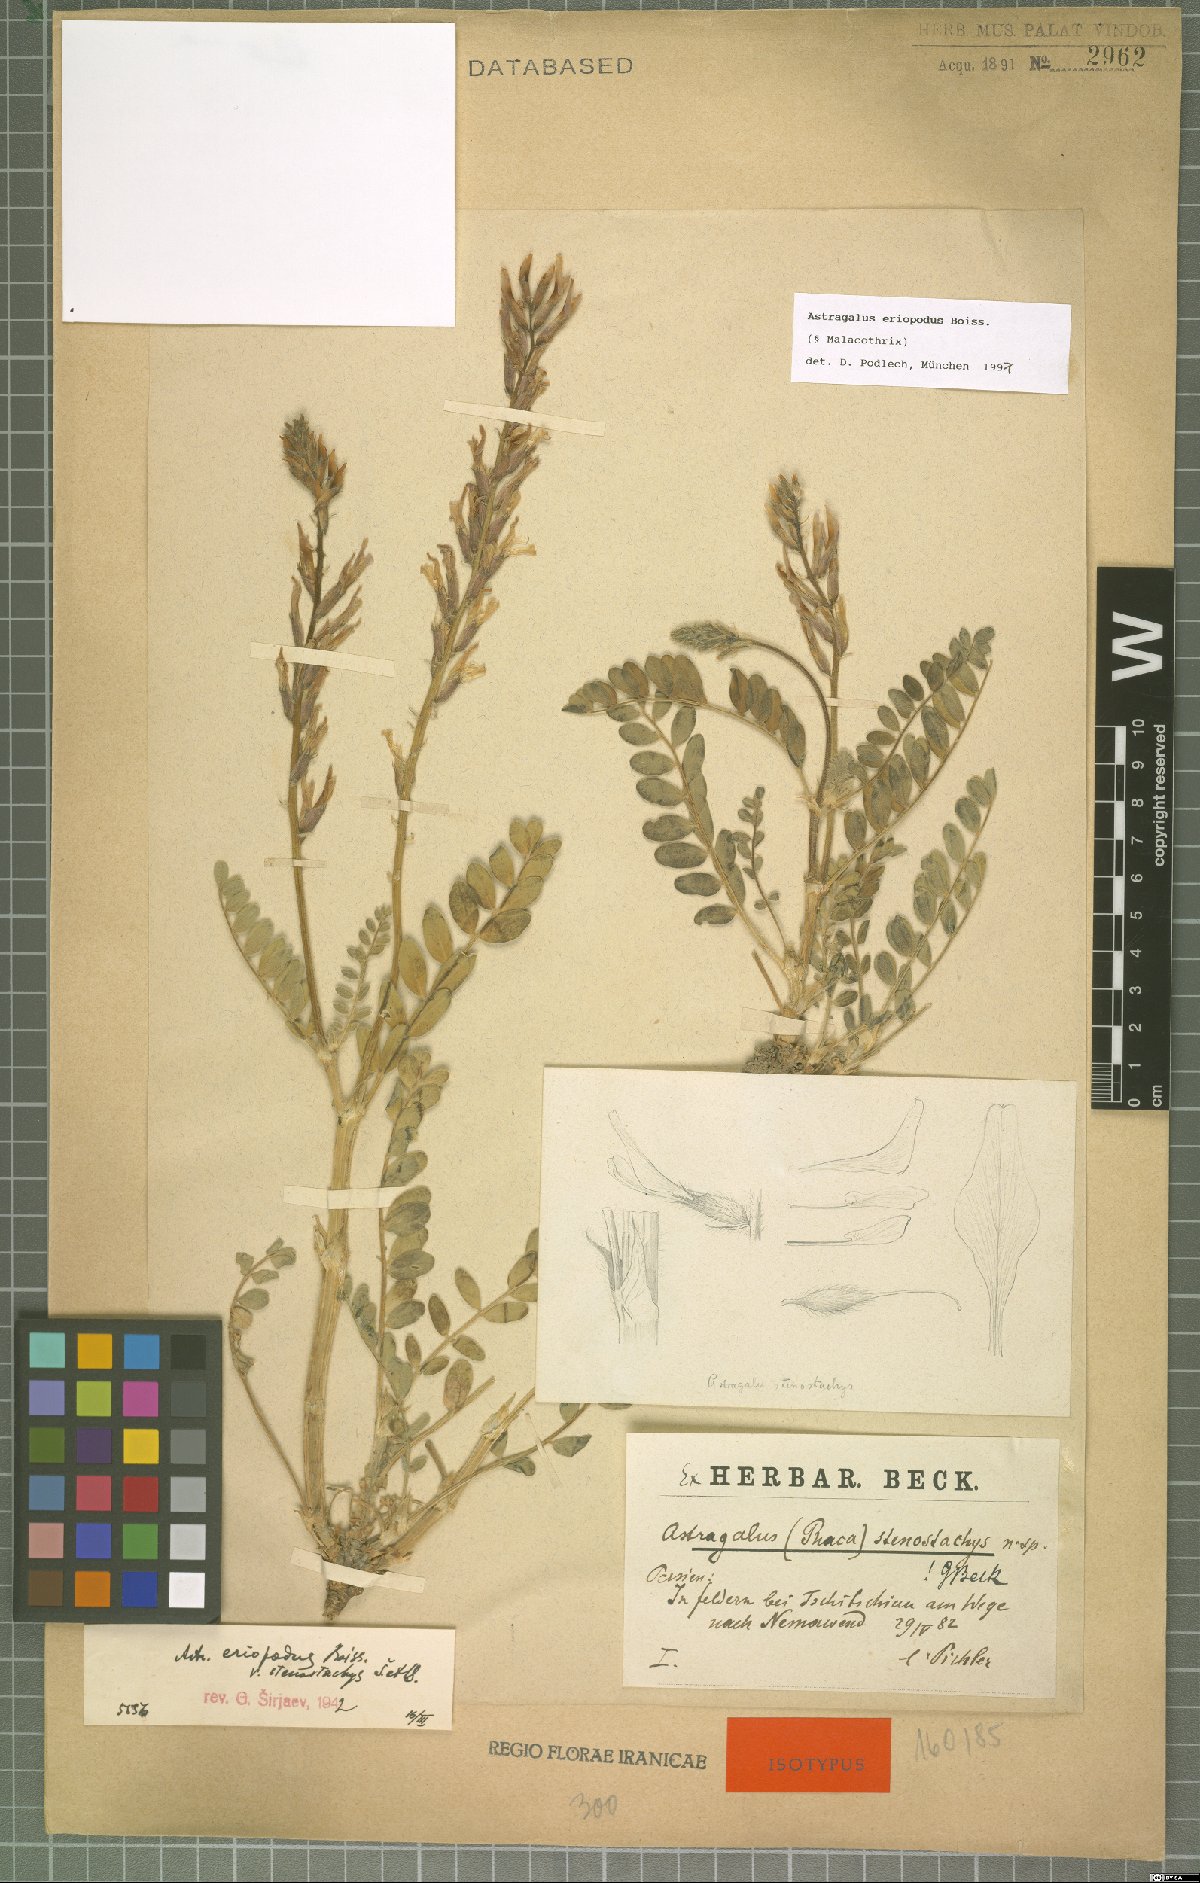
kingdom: Plantae
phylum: Tracheophyta
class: Magnoliopsida
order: Fabales
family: Fabaceae
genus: Astragalus
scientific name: Astragalus eriopodus
